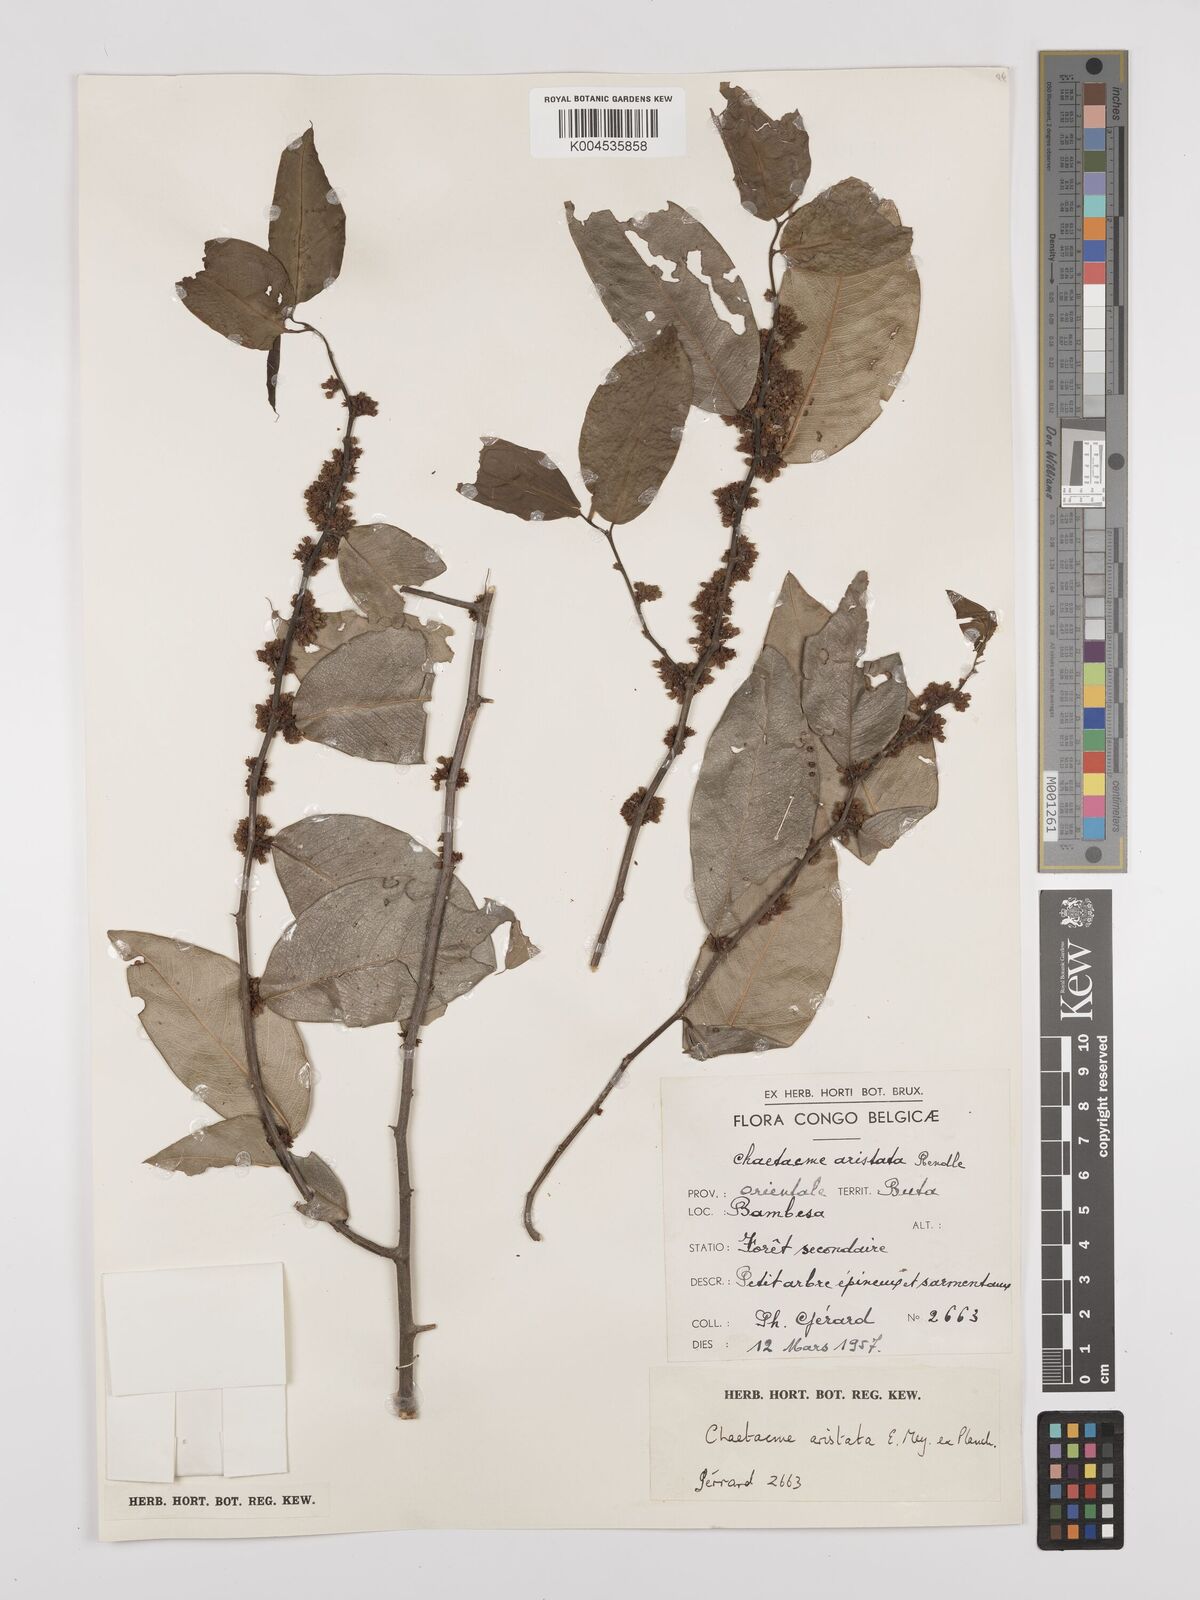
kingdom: Plantae
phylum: Tracheophyta
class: Magnoliopsida
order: Rosales
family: Cannabaceae
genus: Chaetachme
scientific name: Chaetachme aristata
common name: Thorny elm
